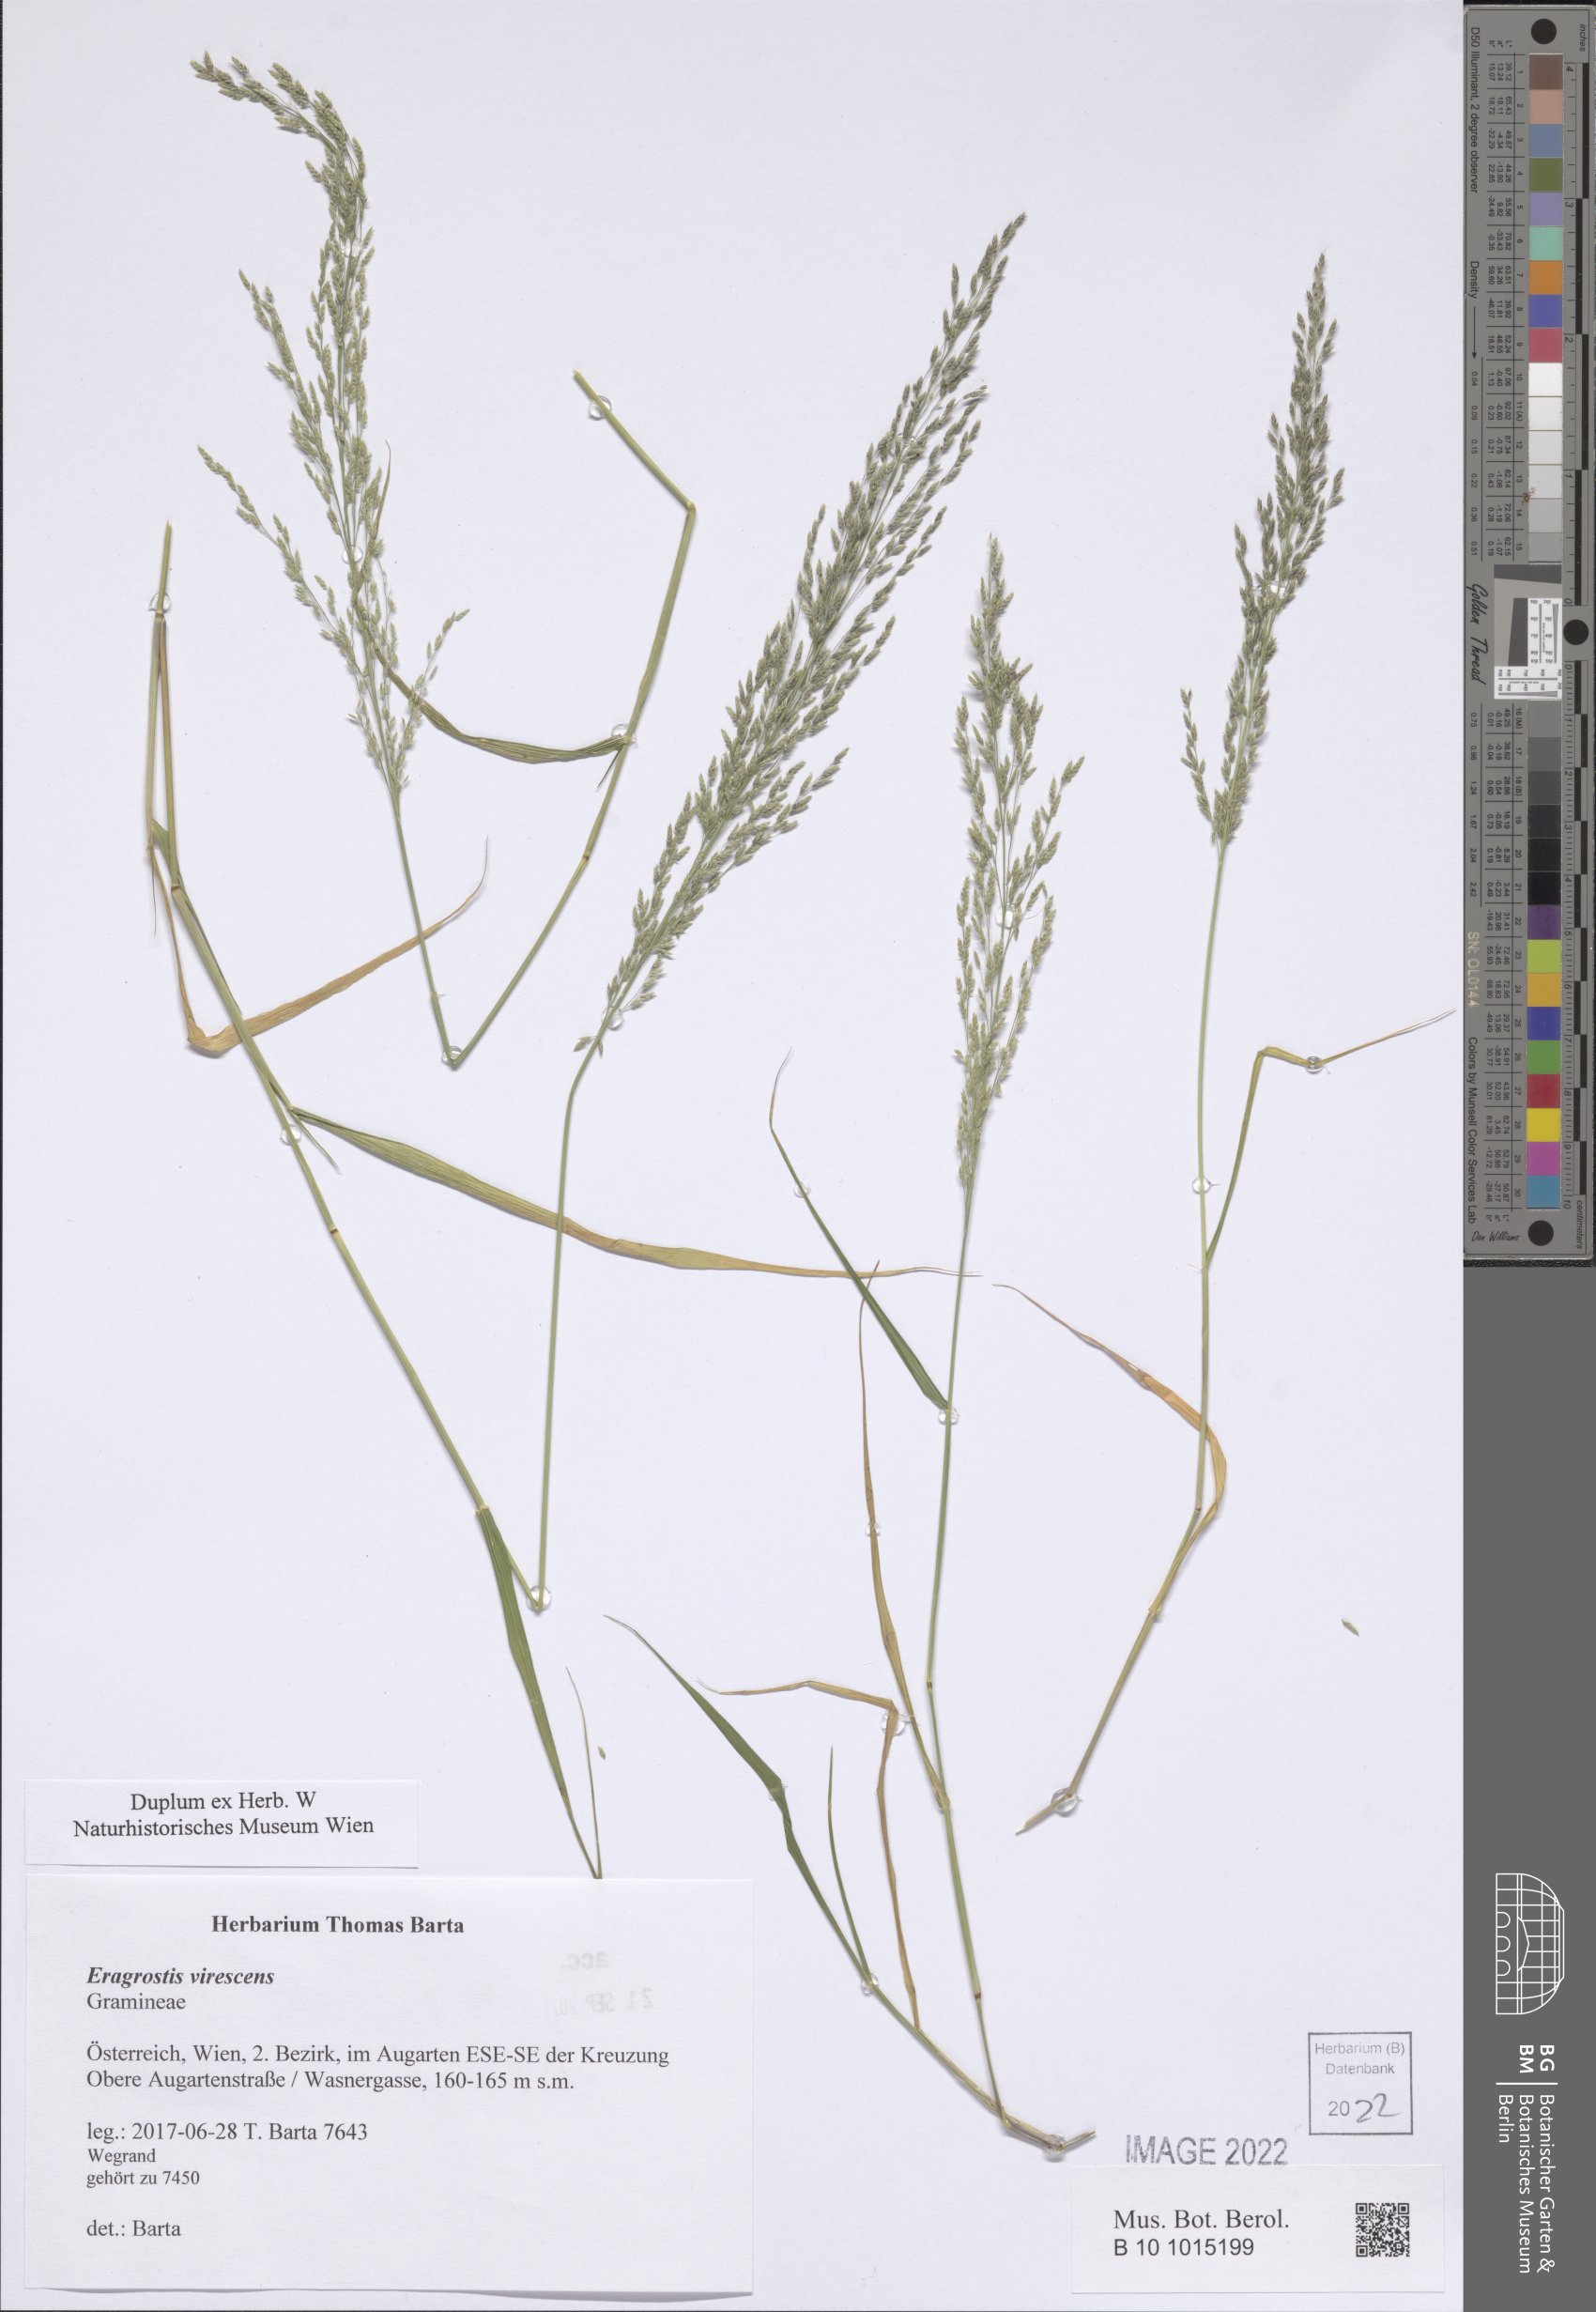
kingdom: Plantae
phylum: Tracheophyta
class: Liliopsida
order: Poales
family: Poaceae
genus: Eragrostis
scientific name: Eragrostis virescens
